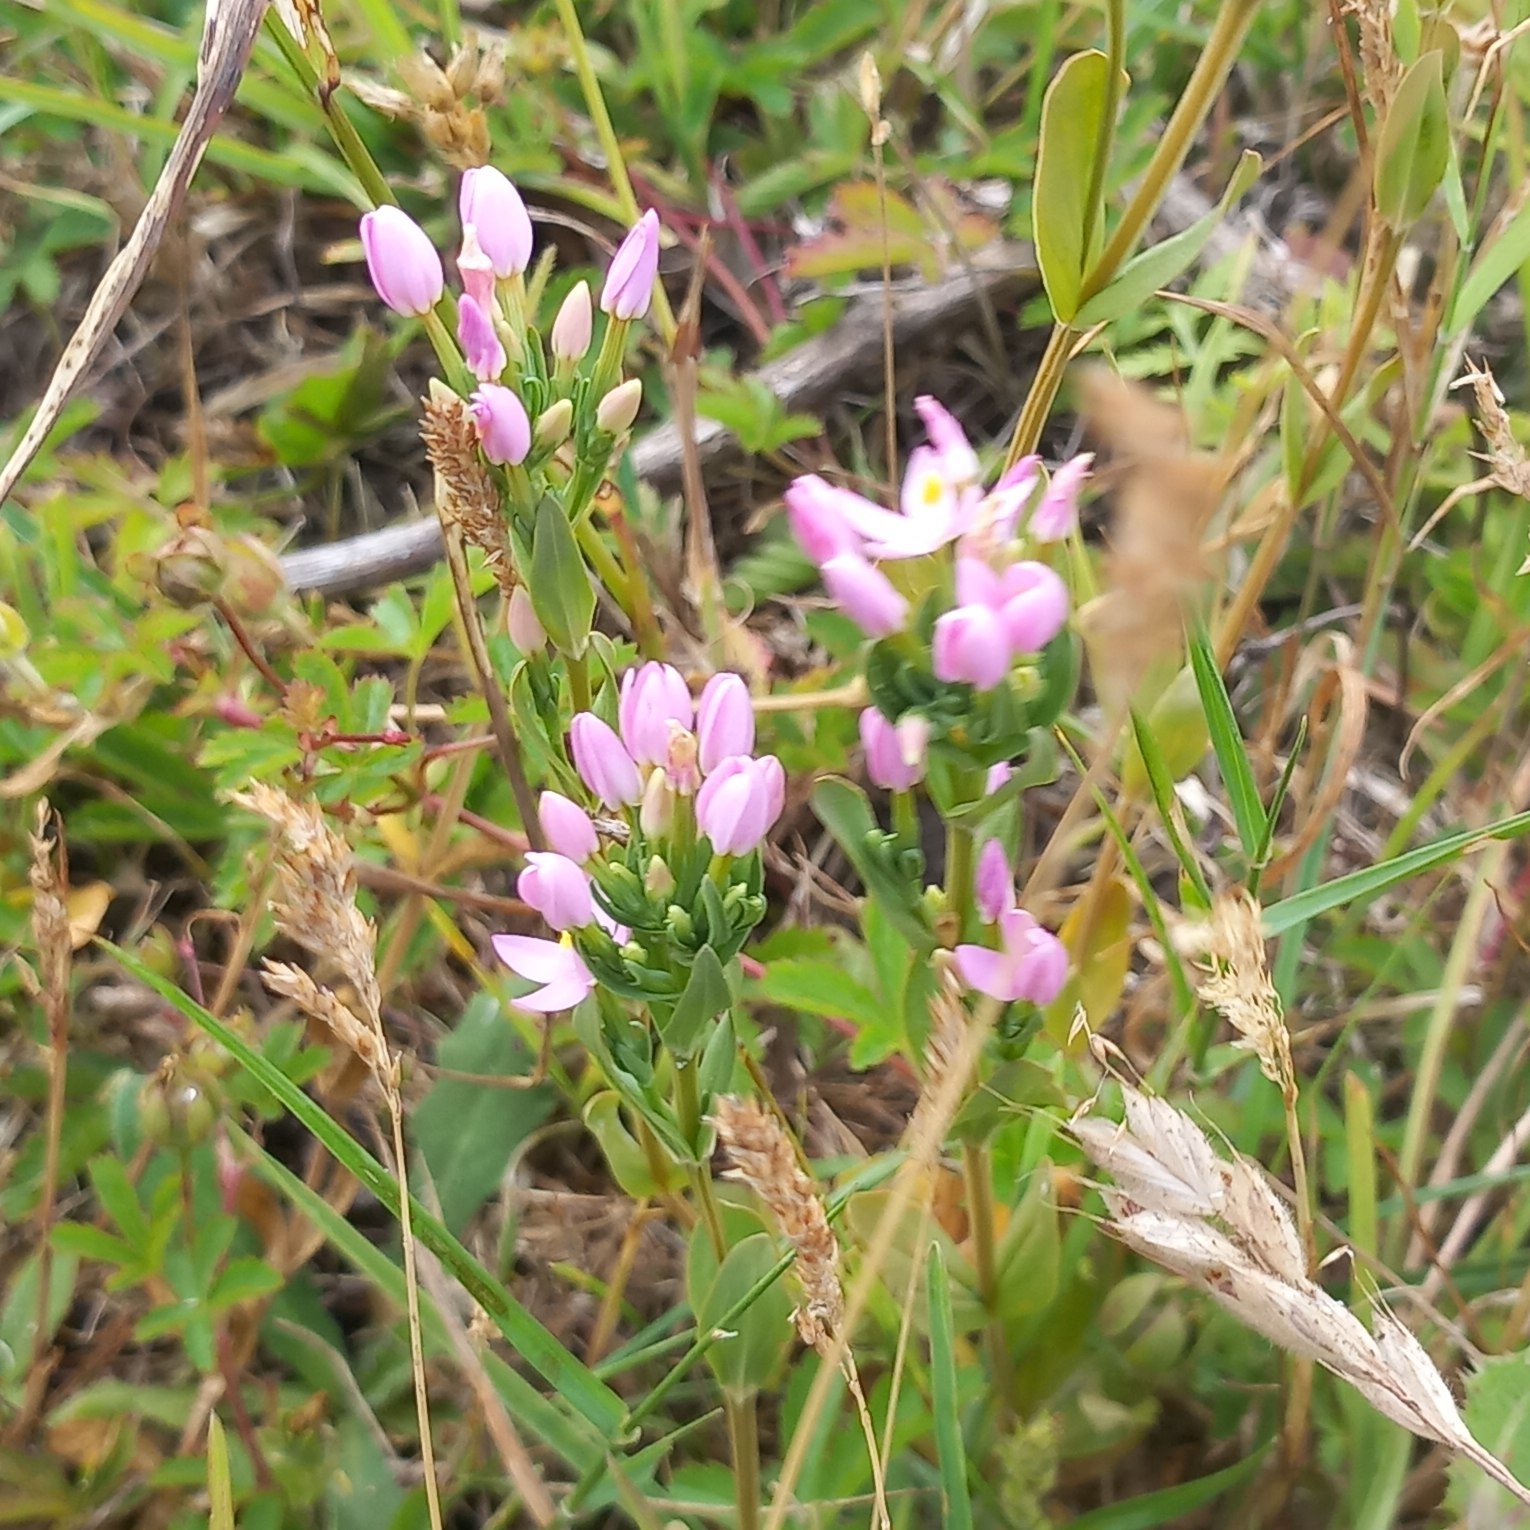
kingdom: Plantae
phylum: Tracheophyta
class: Magnoliopsida
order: Gentianales
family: Gentianaceae
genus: Centaurium
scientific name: Centaurium erythraea
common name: Mark-tusindgylden
